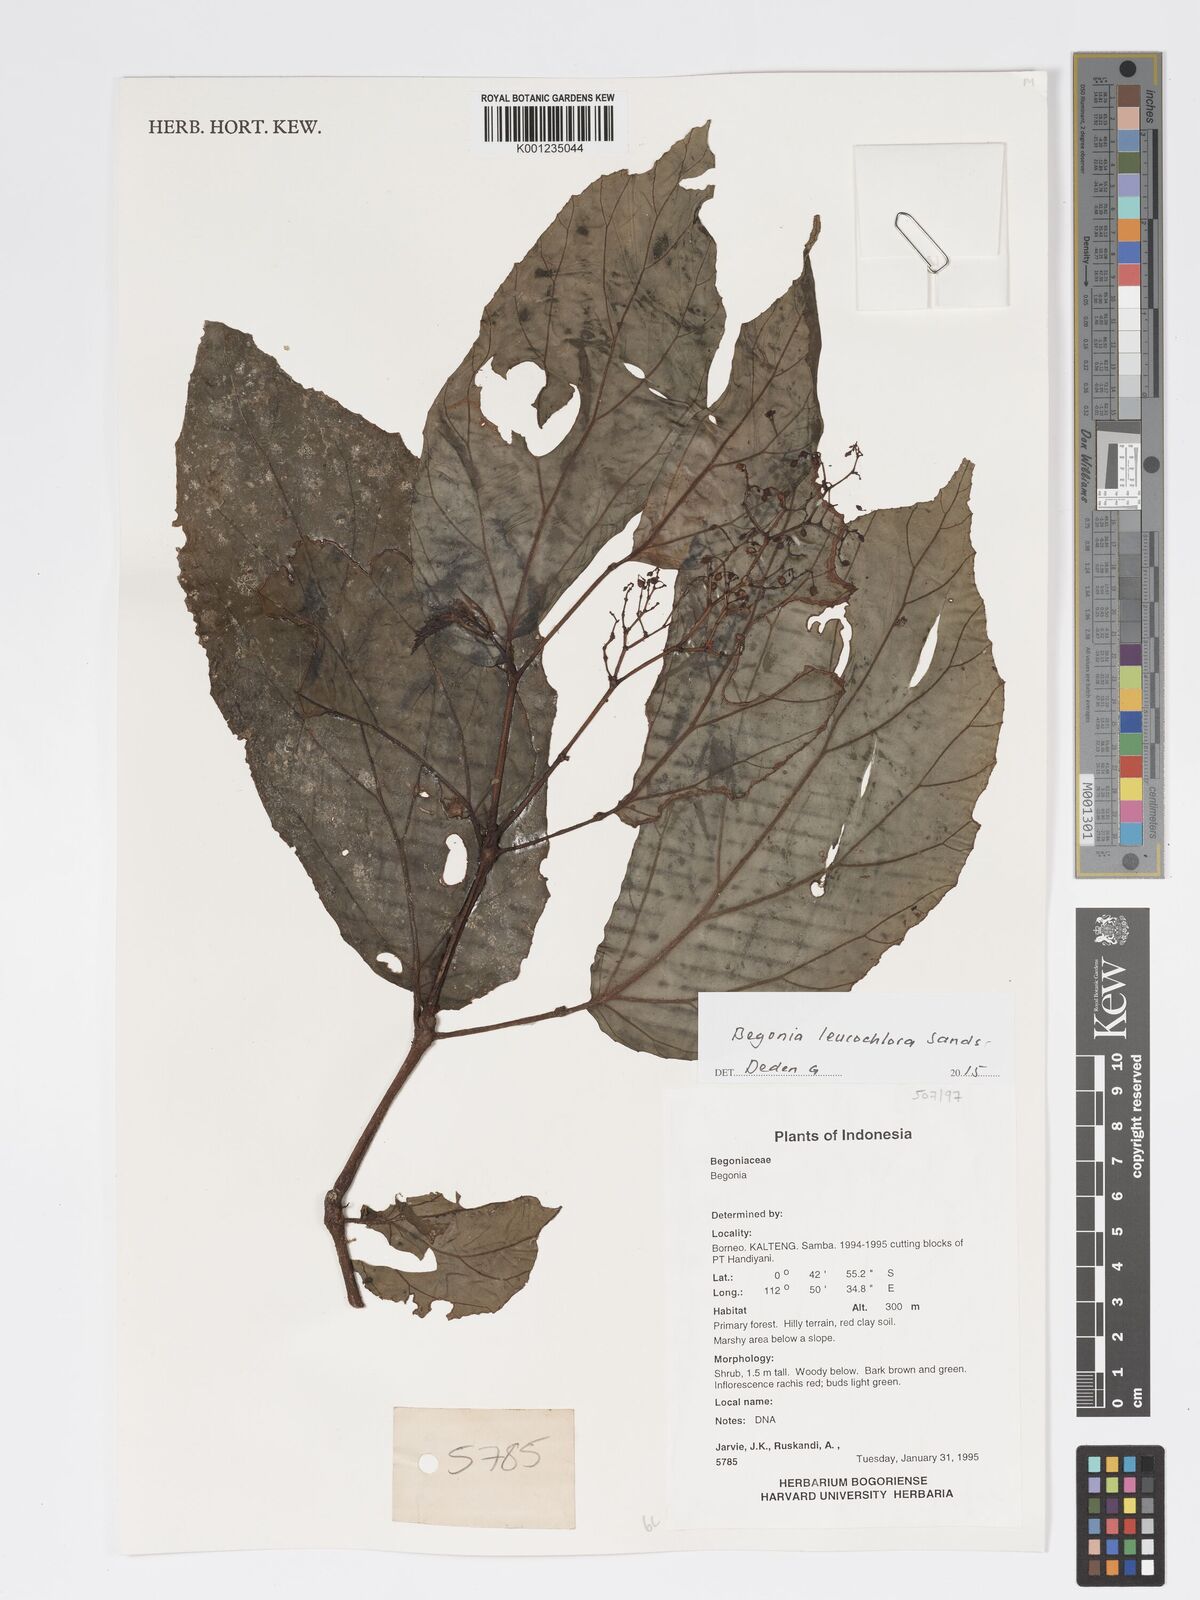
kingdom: Plantae
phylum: Tracheophyta
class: Magnoliopsida
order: Cucurbitales
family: Begoniaceae
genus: Begonia
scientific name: Begonia leucochlora
